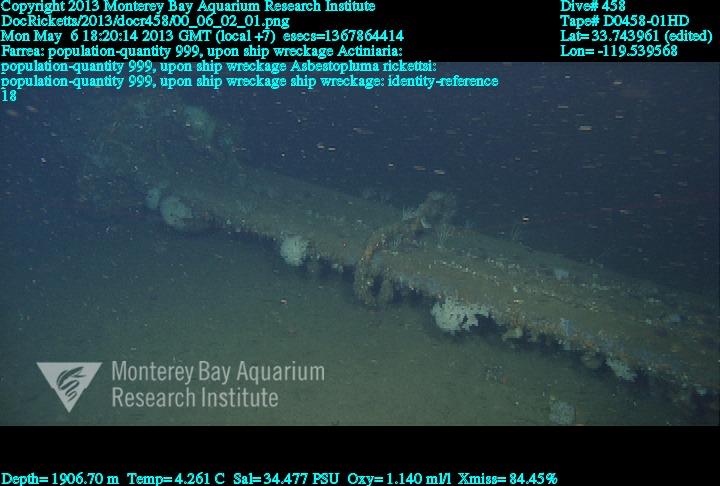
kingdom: Animalia
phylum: Porifera
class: Hexactinellida
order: Sceptrulophora
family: Farreidae
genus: Farrea
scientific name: Farrea
